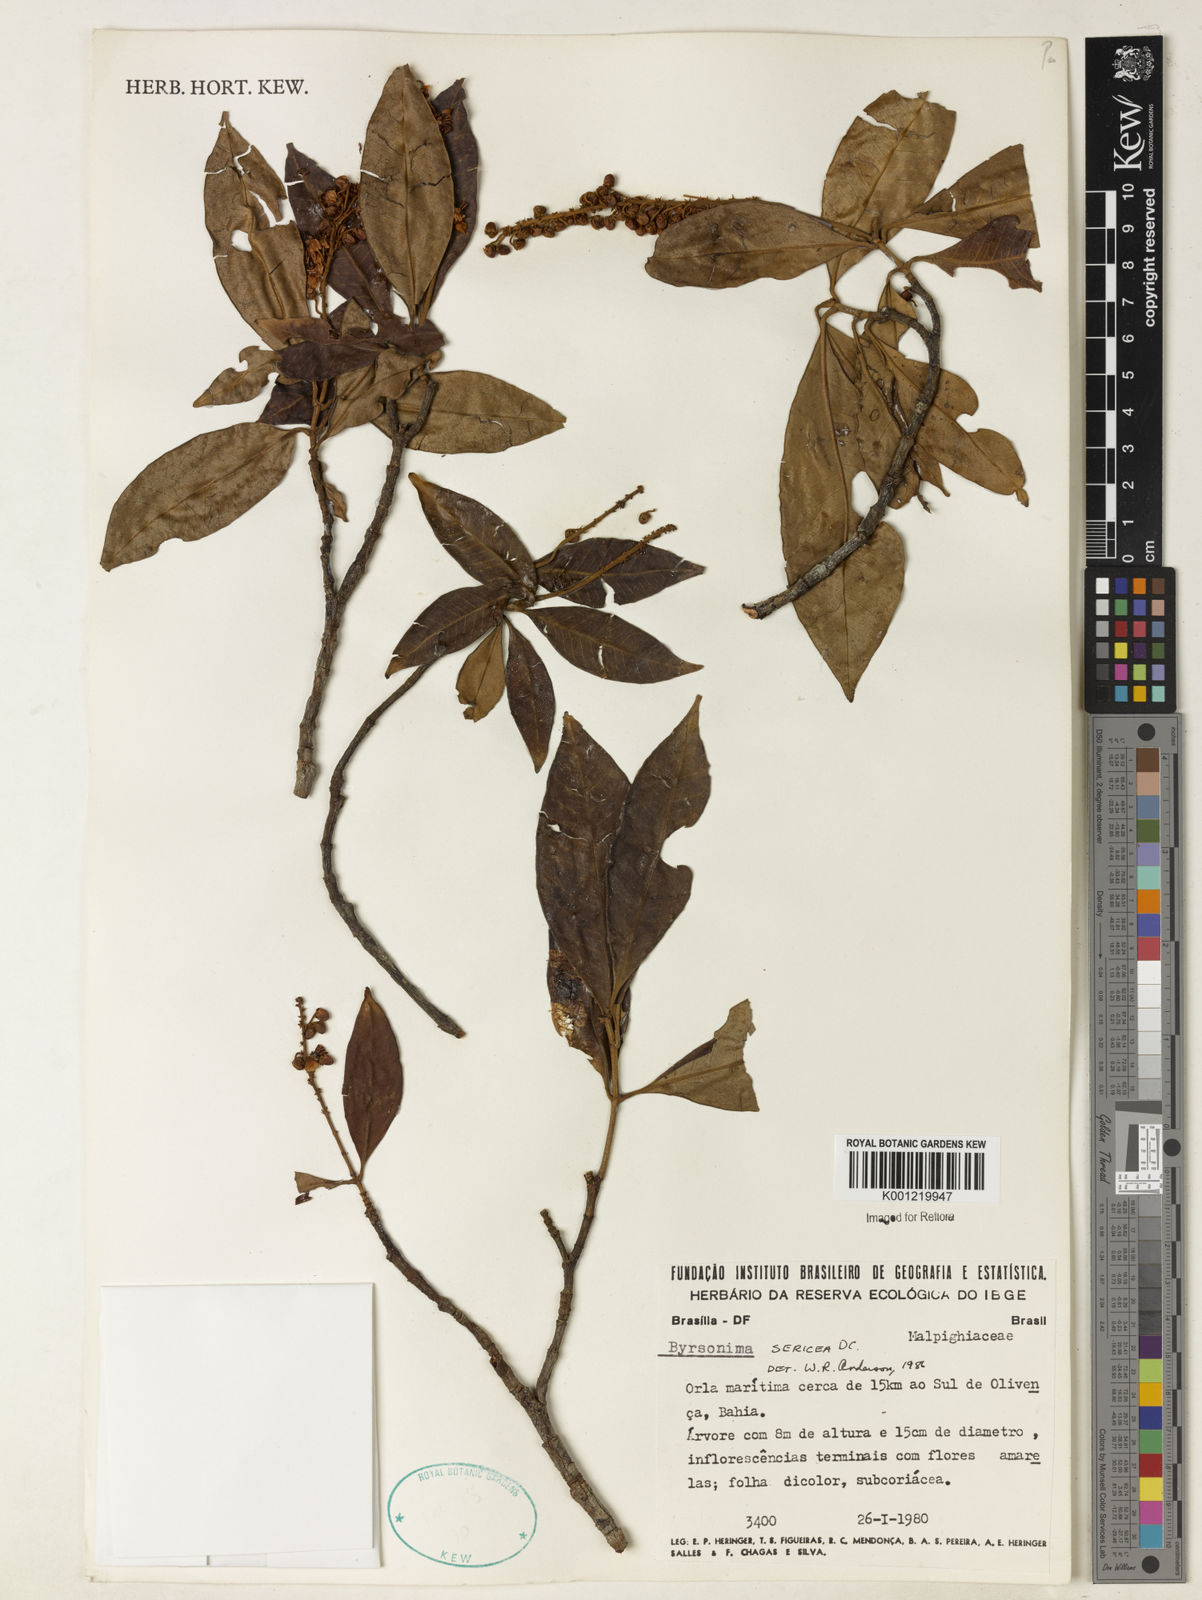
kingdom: Plantae
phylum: Tracheophyta
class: Magnoliopsida
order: Malpighiales
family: Malpighiaceae
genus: Byrsonima
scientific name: Byrsonima sericea
